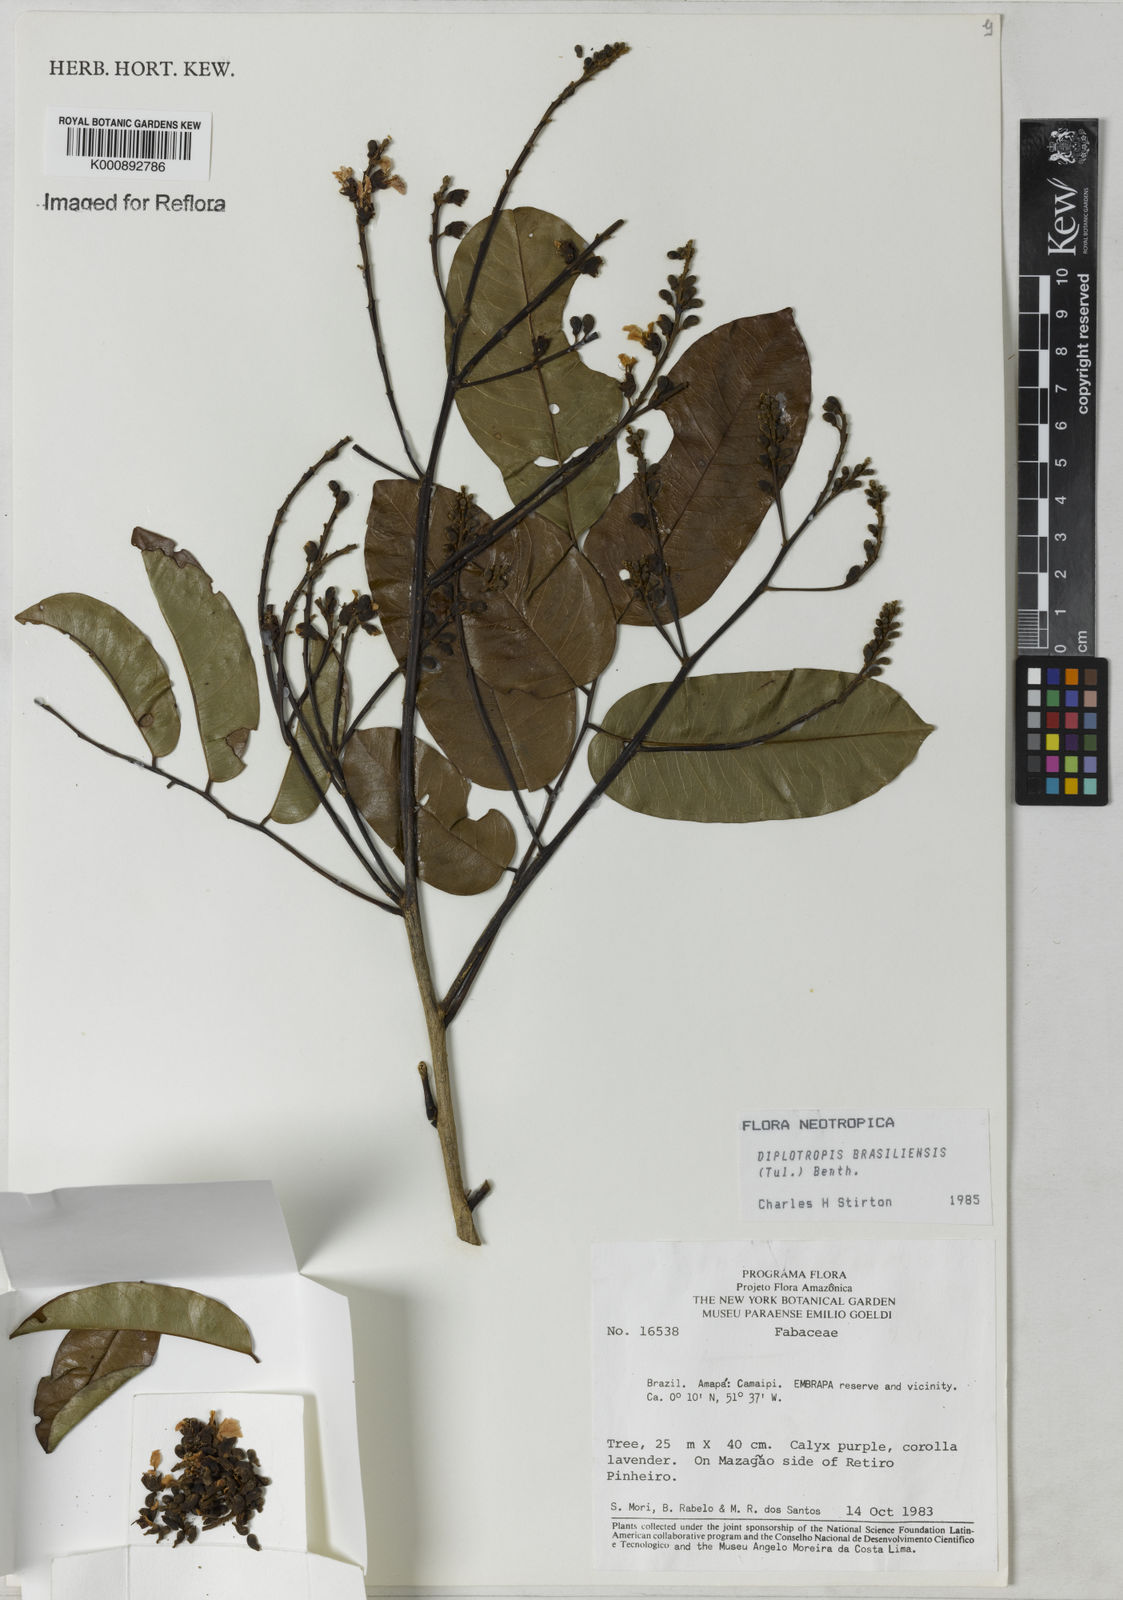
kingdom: Plantae
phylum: Tracheophyta
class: Magnoliopsida
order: Fabales
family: Fabaceae
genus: Diplotropis
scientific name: Diplotropis brasiliensis
